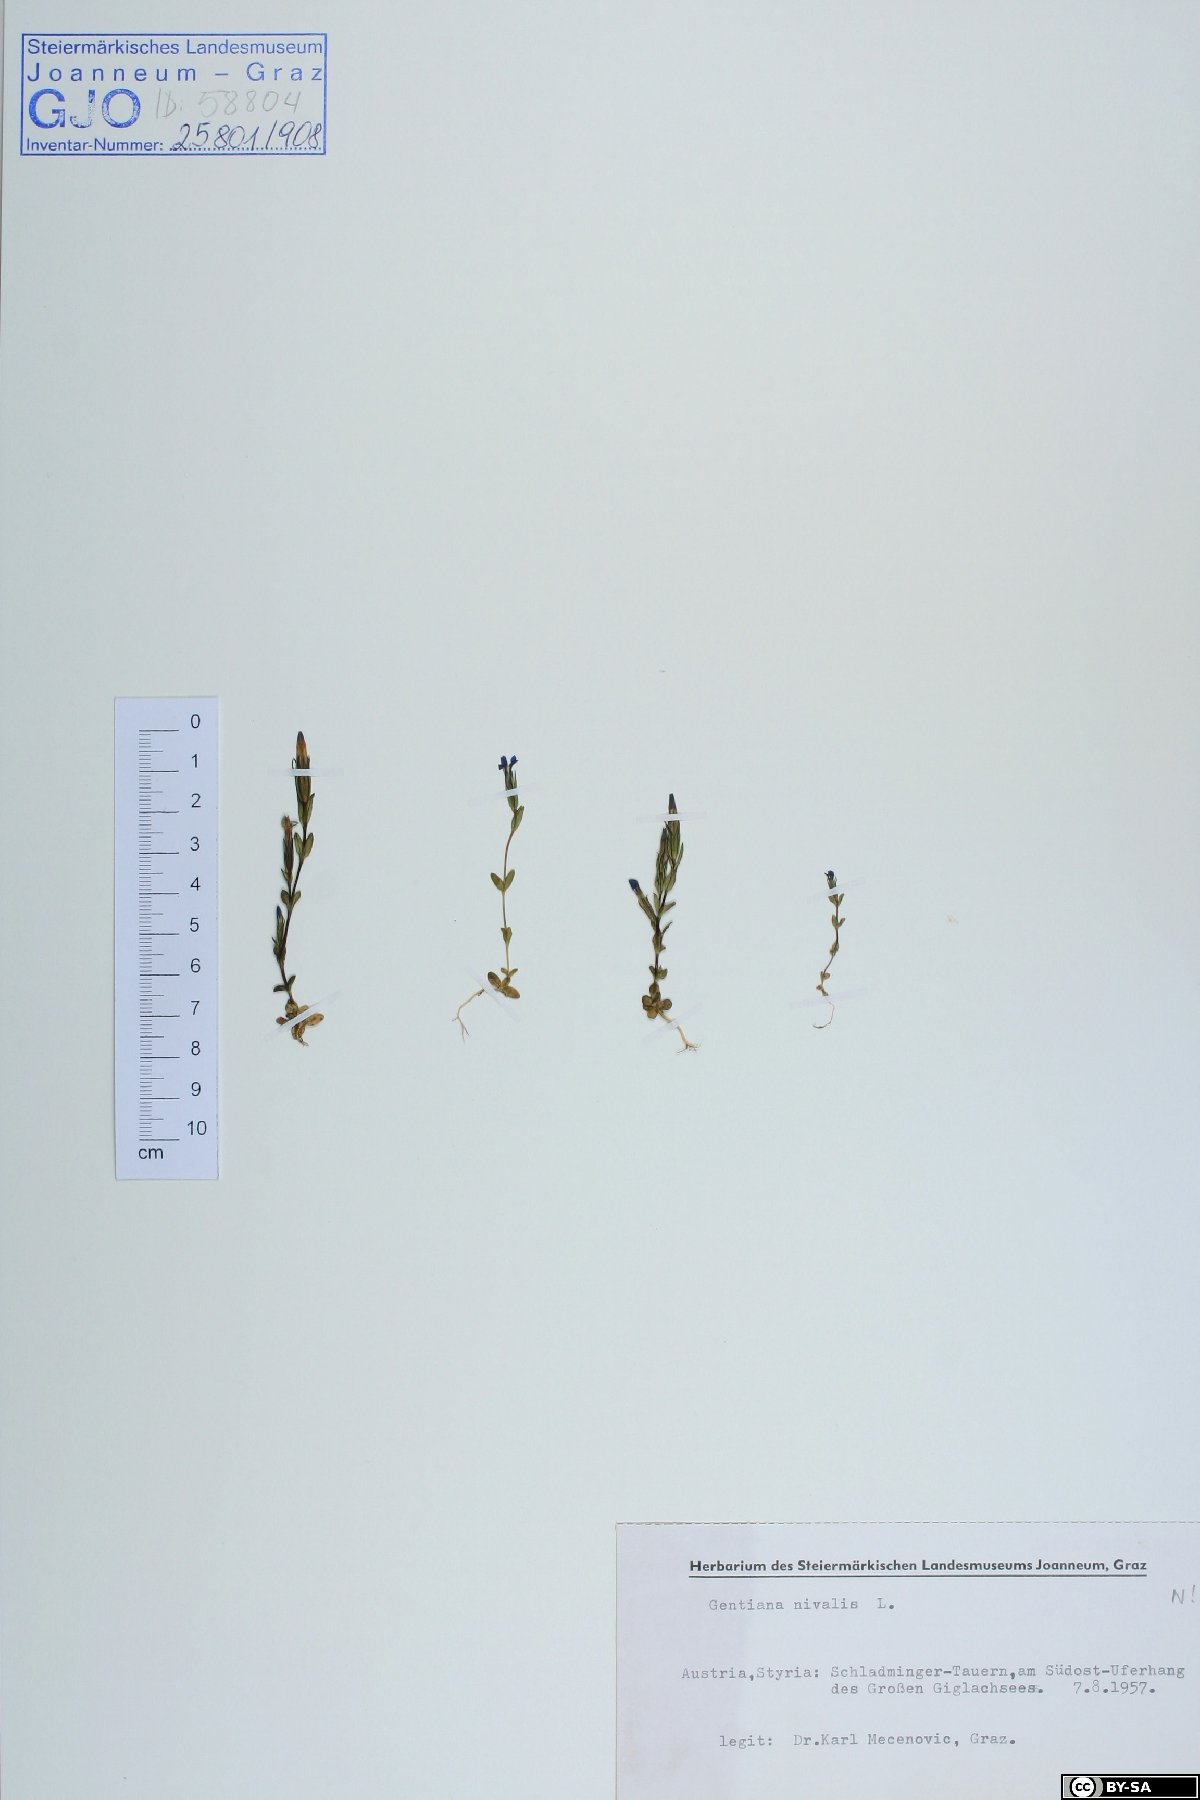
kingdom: Plantae
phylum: Tracheophyta
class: Magnoliopsida
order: Gentianales
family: Gentianaceae
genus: Gentiana
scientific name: Gentiana nivalis
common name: Alpine gentian
